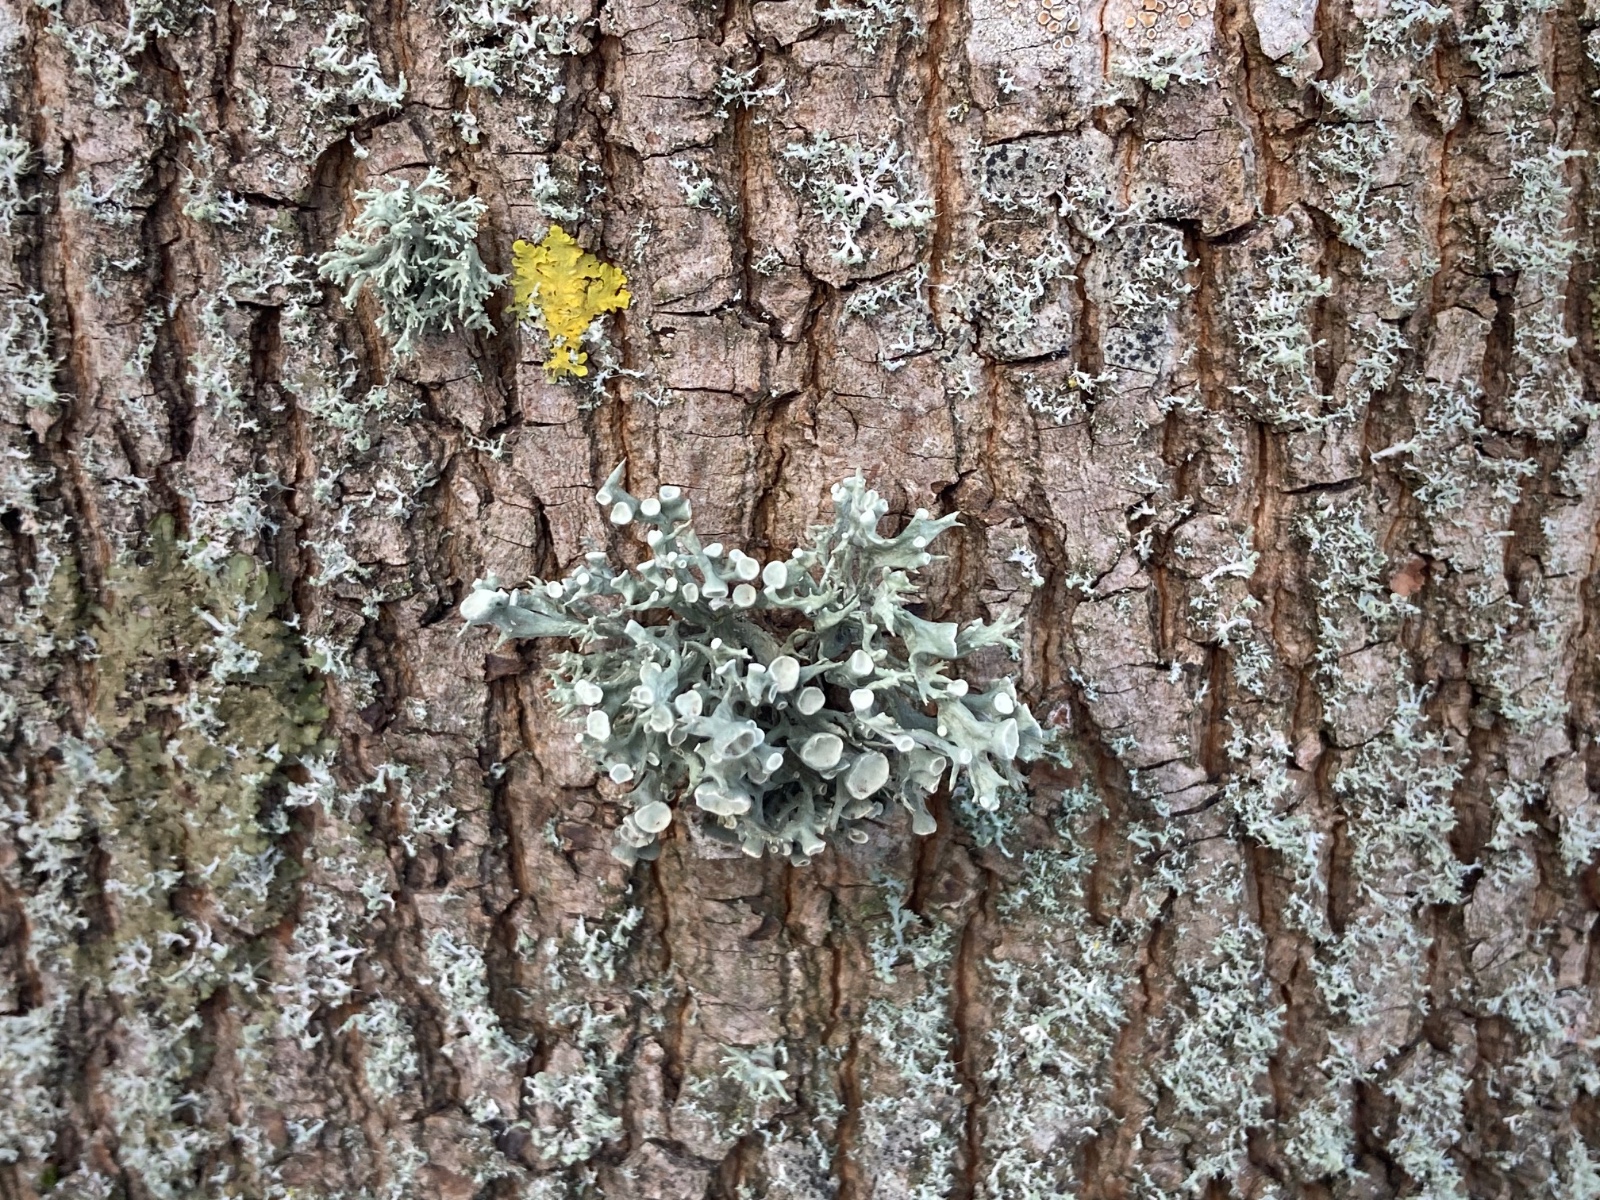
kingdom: Fungi
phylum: Ascomycota
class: Lecanoromycetes
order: Lecanorales
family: Ramalinaceae
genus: Ramalina
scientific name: Ramalina fastigiata
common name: tue-grenlav
